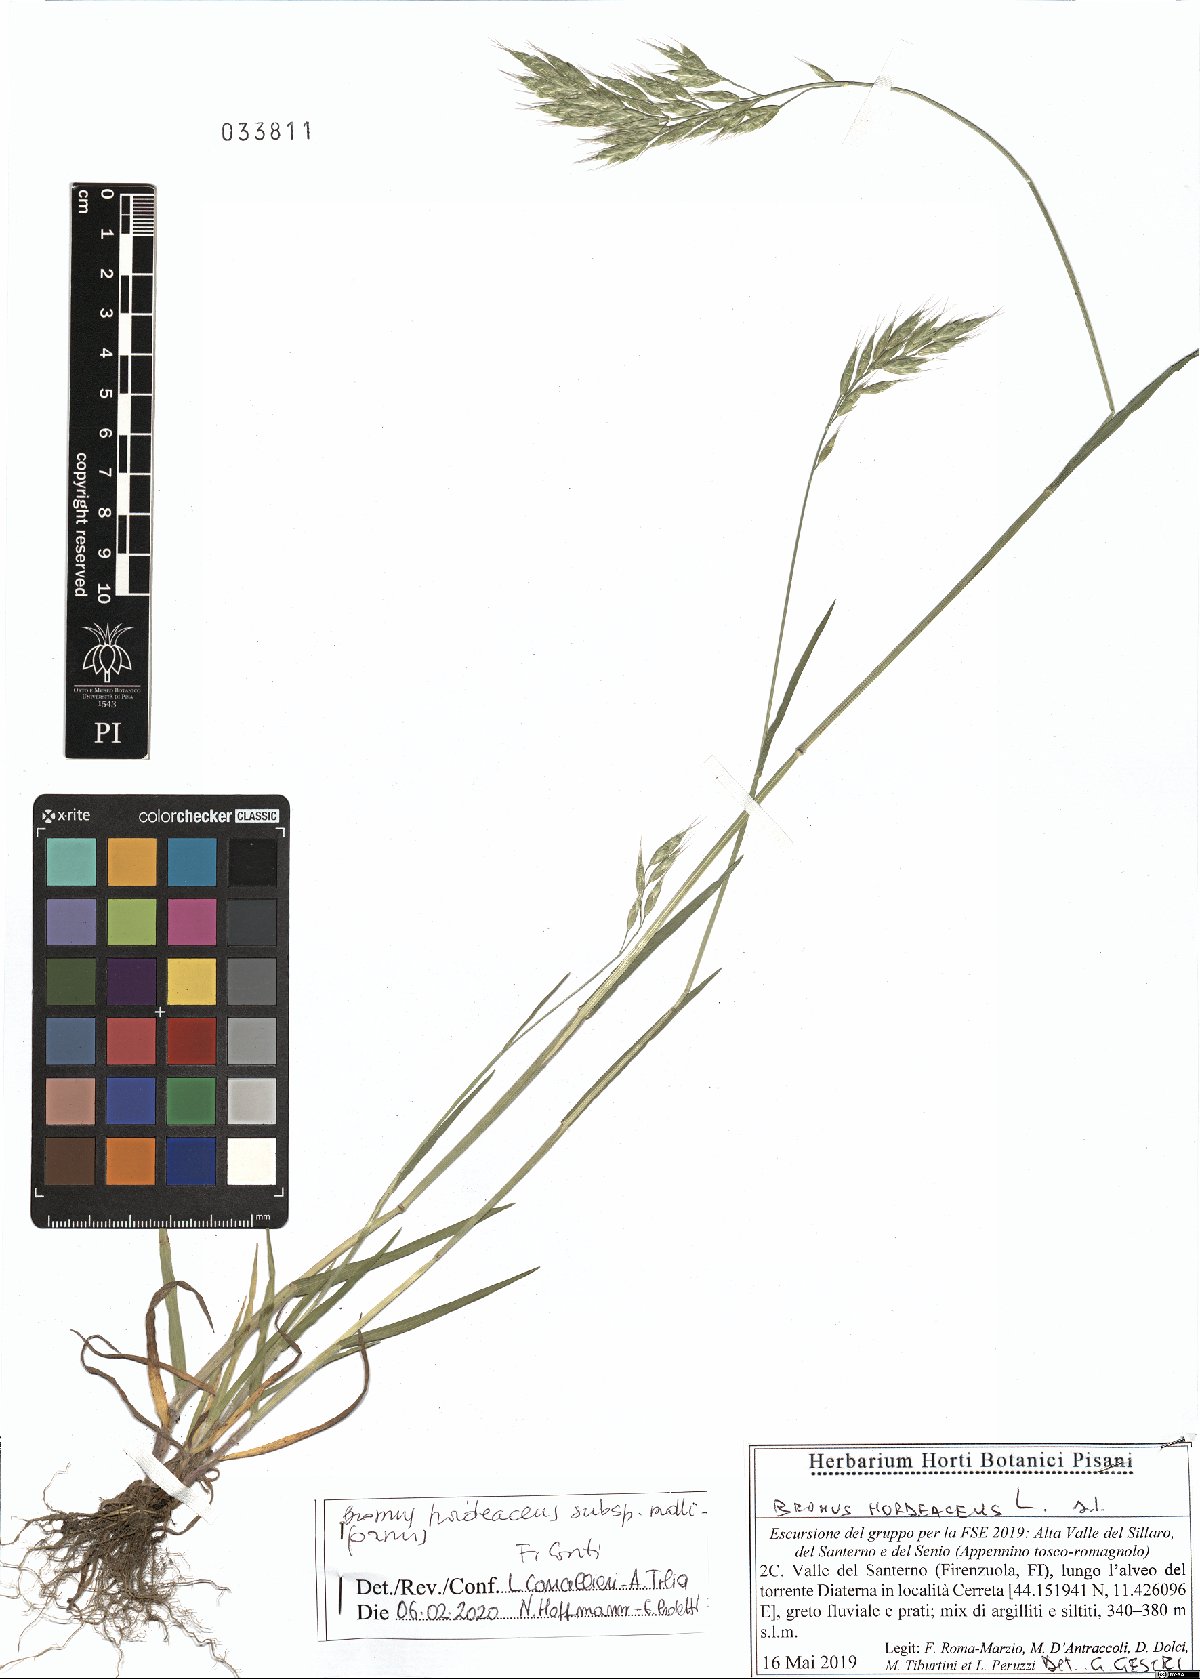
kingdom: Plantae
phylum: Tracheophyta
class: Liliopsida
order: Poales
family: Poaceae
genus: Bromus
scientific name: Bromus hordeaceus
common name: Soft brome
